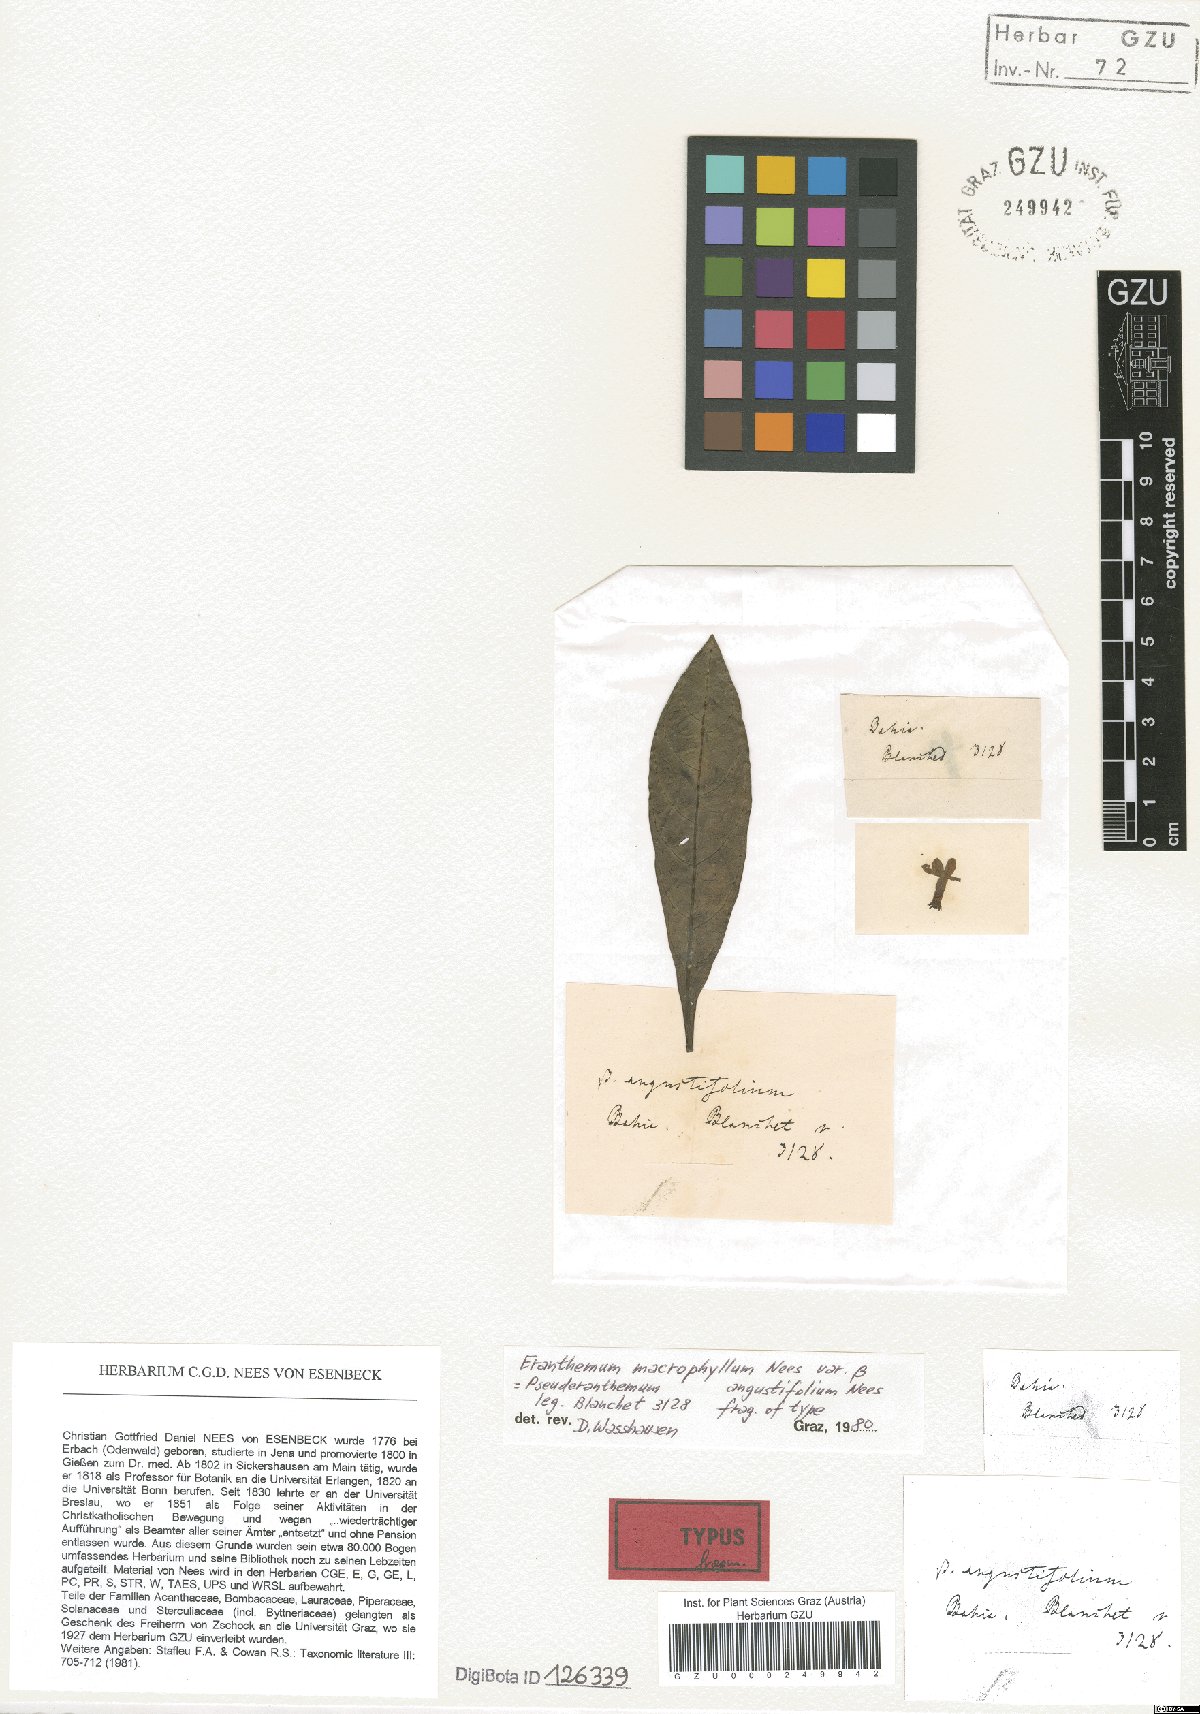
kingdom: Plantae
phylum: Tracheophyta
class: Magnoliopsida
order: Lamiales
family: Acanthaceae
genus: Pseuderanthemum
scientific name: Pseuderanthemum macrophyllum
